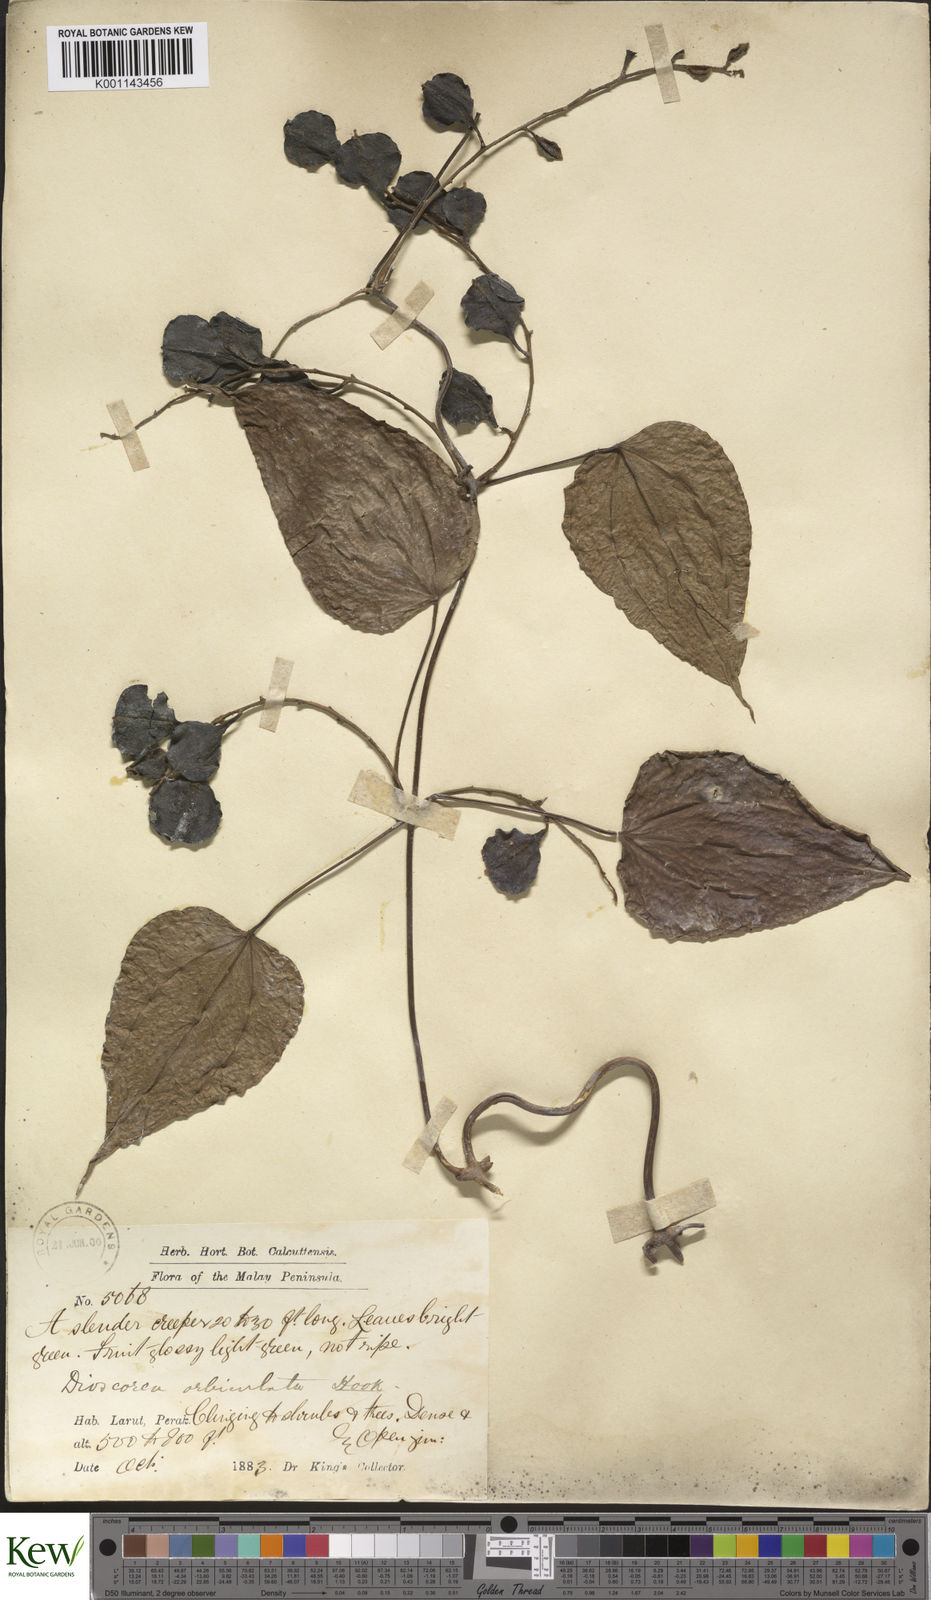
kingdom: Plantae
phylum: Tracheophyta
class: Liliopsida
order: Dioscoreales
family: Dioscoreaceae
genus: Dioscorea
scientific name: Dioscorea orbiculata
